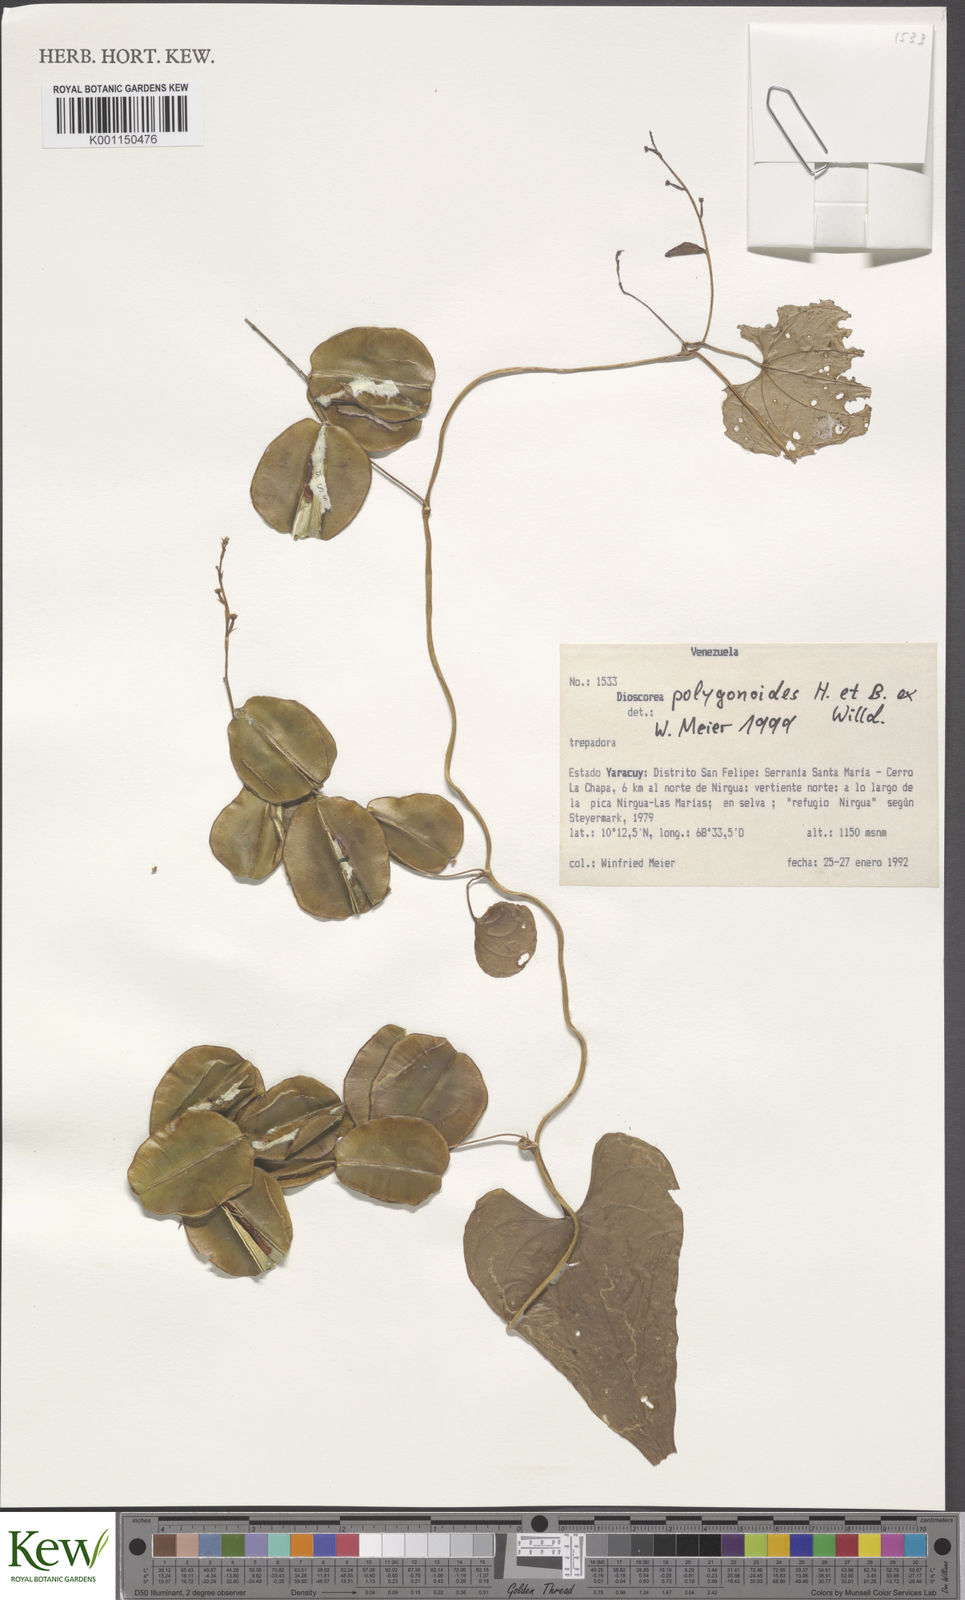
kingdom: Plantae
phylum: Tracheophyta
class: Liliopsida
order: Dioscoreales
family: Dioscoreaceae
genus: Dioscorea
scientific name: Dioscorea polygonoides
